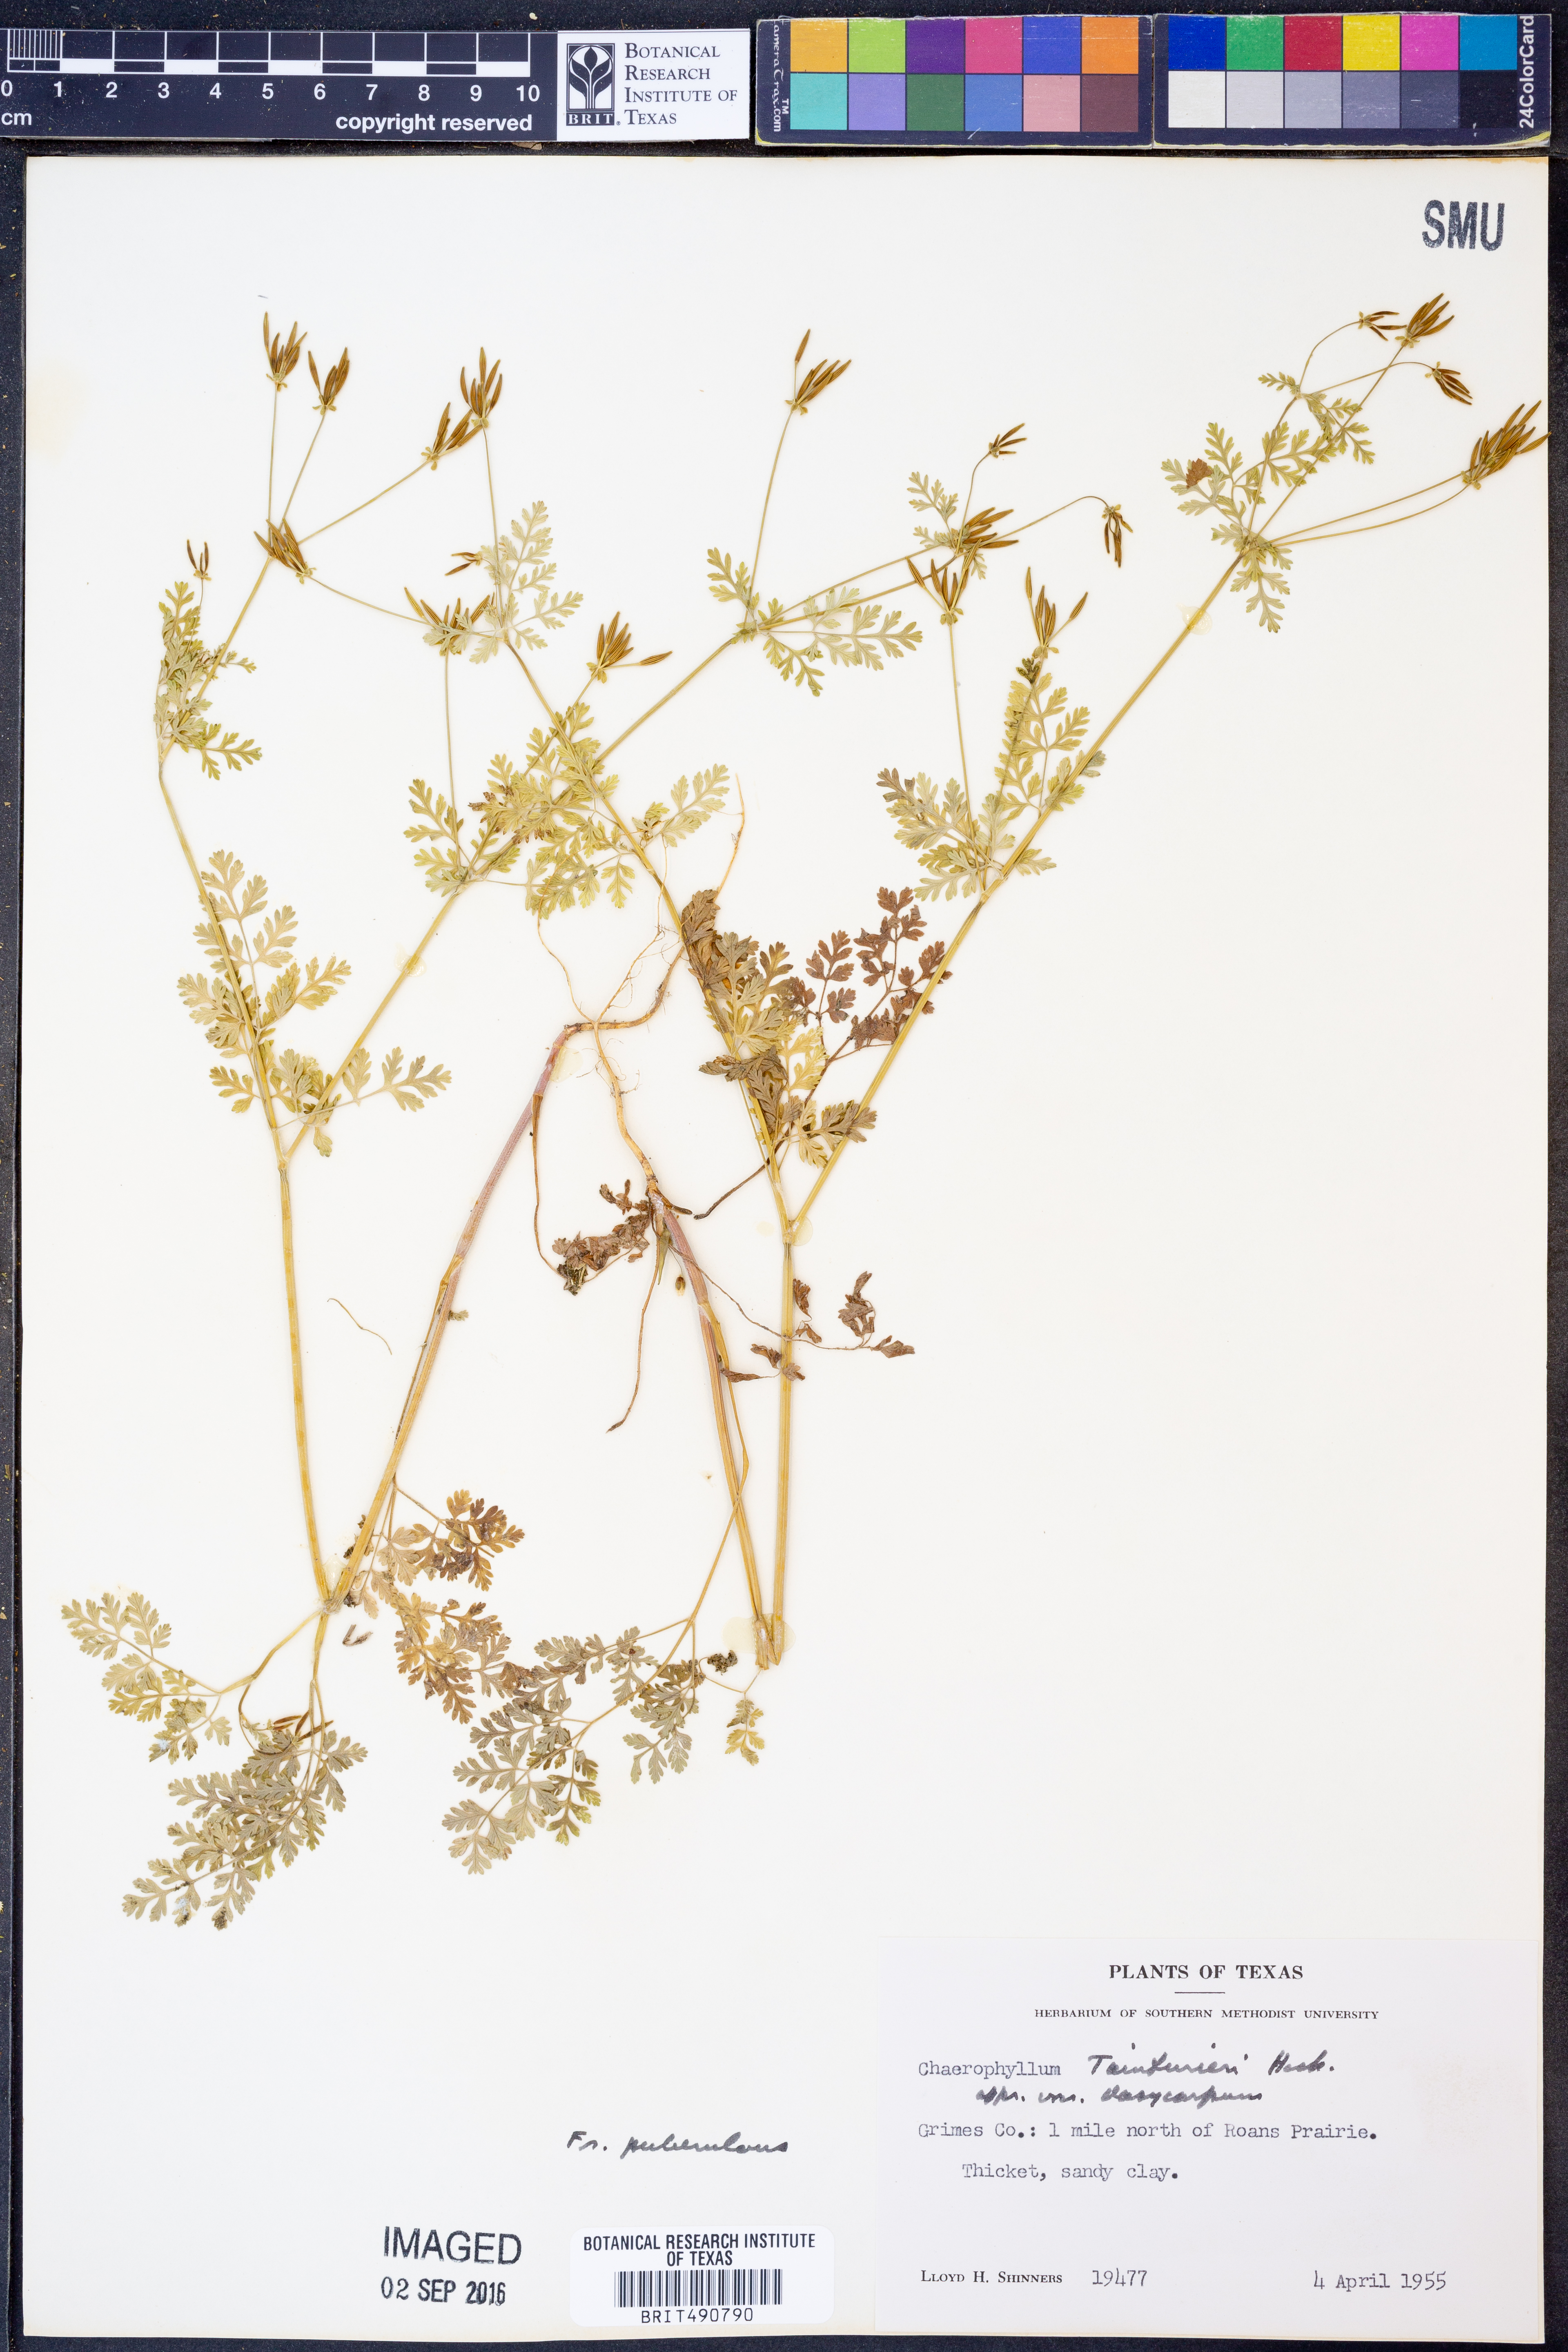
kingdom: Plantae
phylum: Tracheophyta
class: Magnoliopsida
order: Apiales
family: Apiaceae
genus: Chaerophyllum
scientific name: Chaerophyllum dasycarpum
